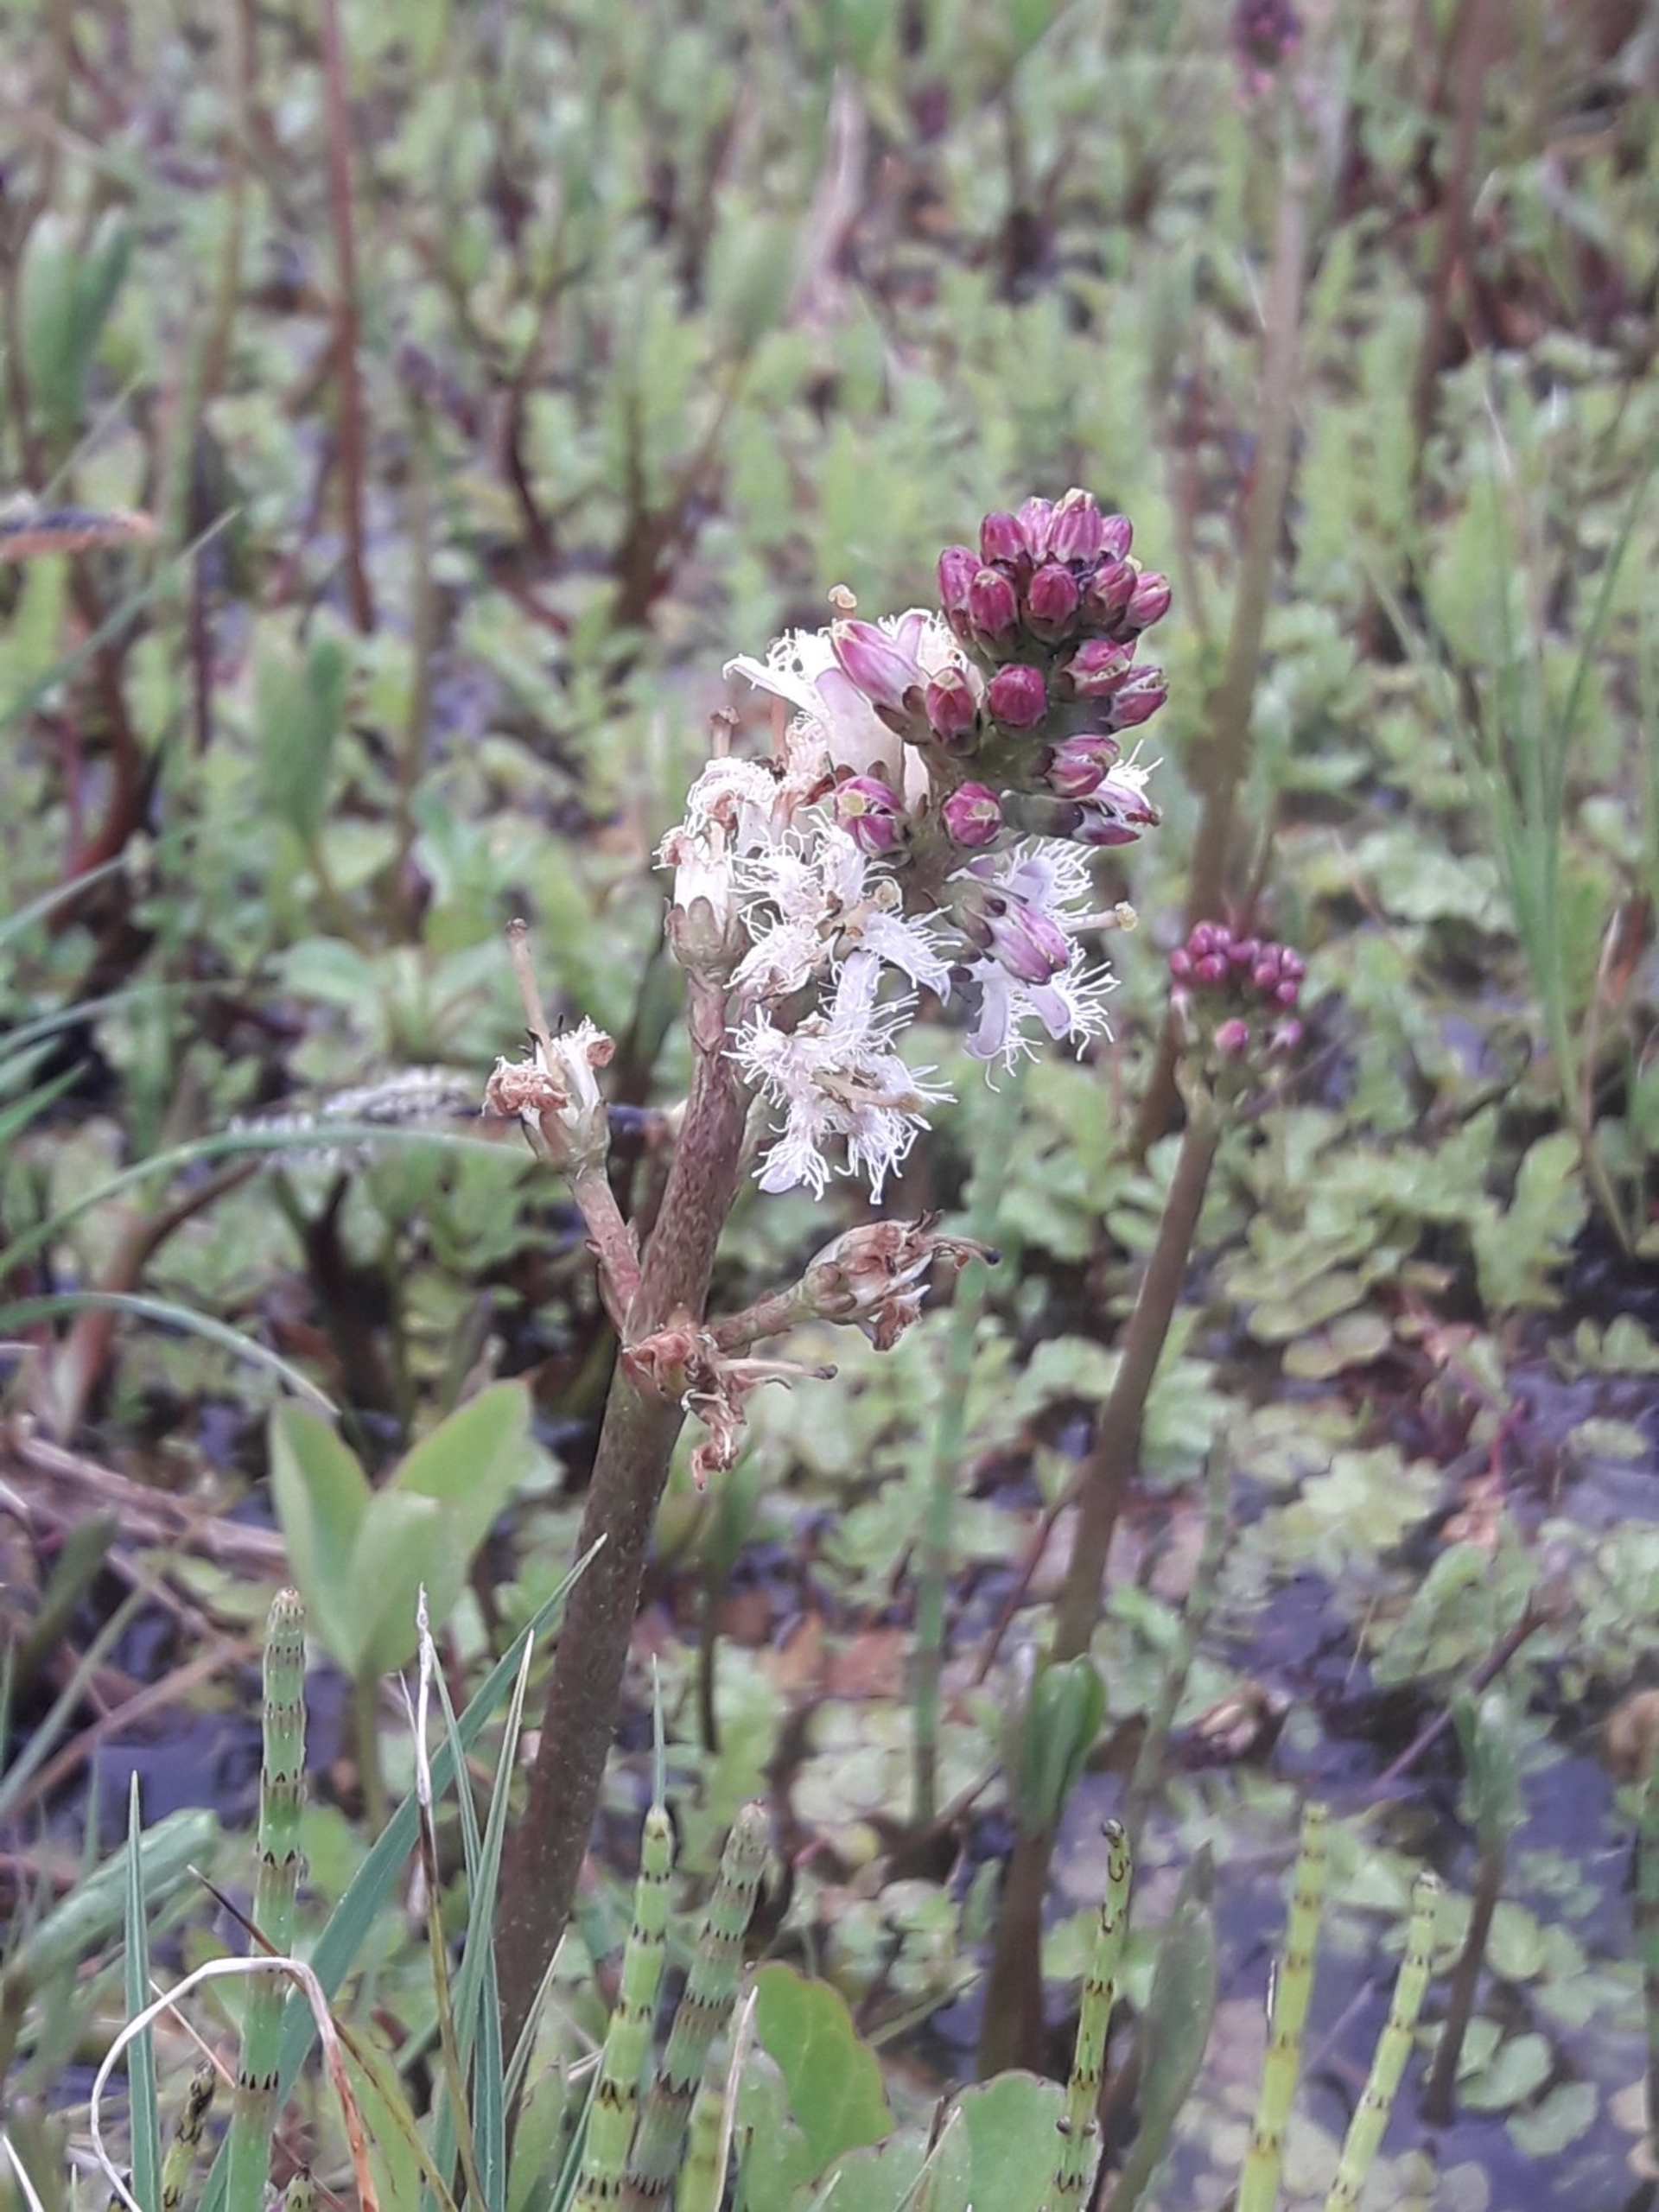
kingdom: Plantae
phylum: Tracheophyta
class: Magnoliopsida
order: Asterales
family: Menyanthaceae
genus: Menyanthes
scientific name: Menyanthes trifoliata
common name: Bukkeblad
